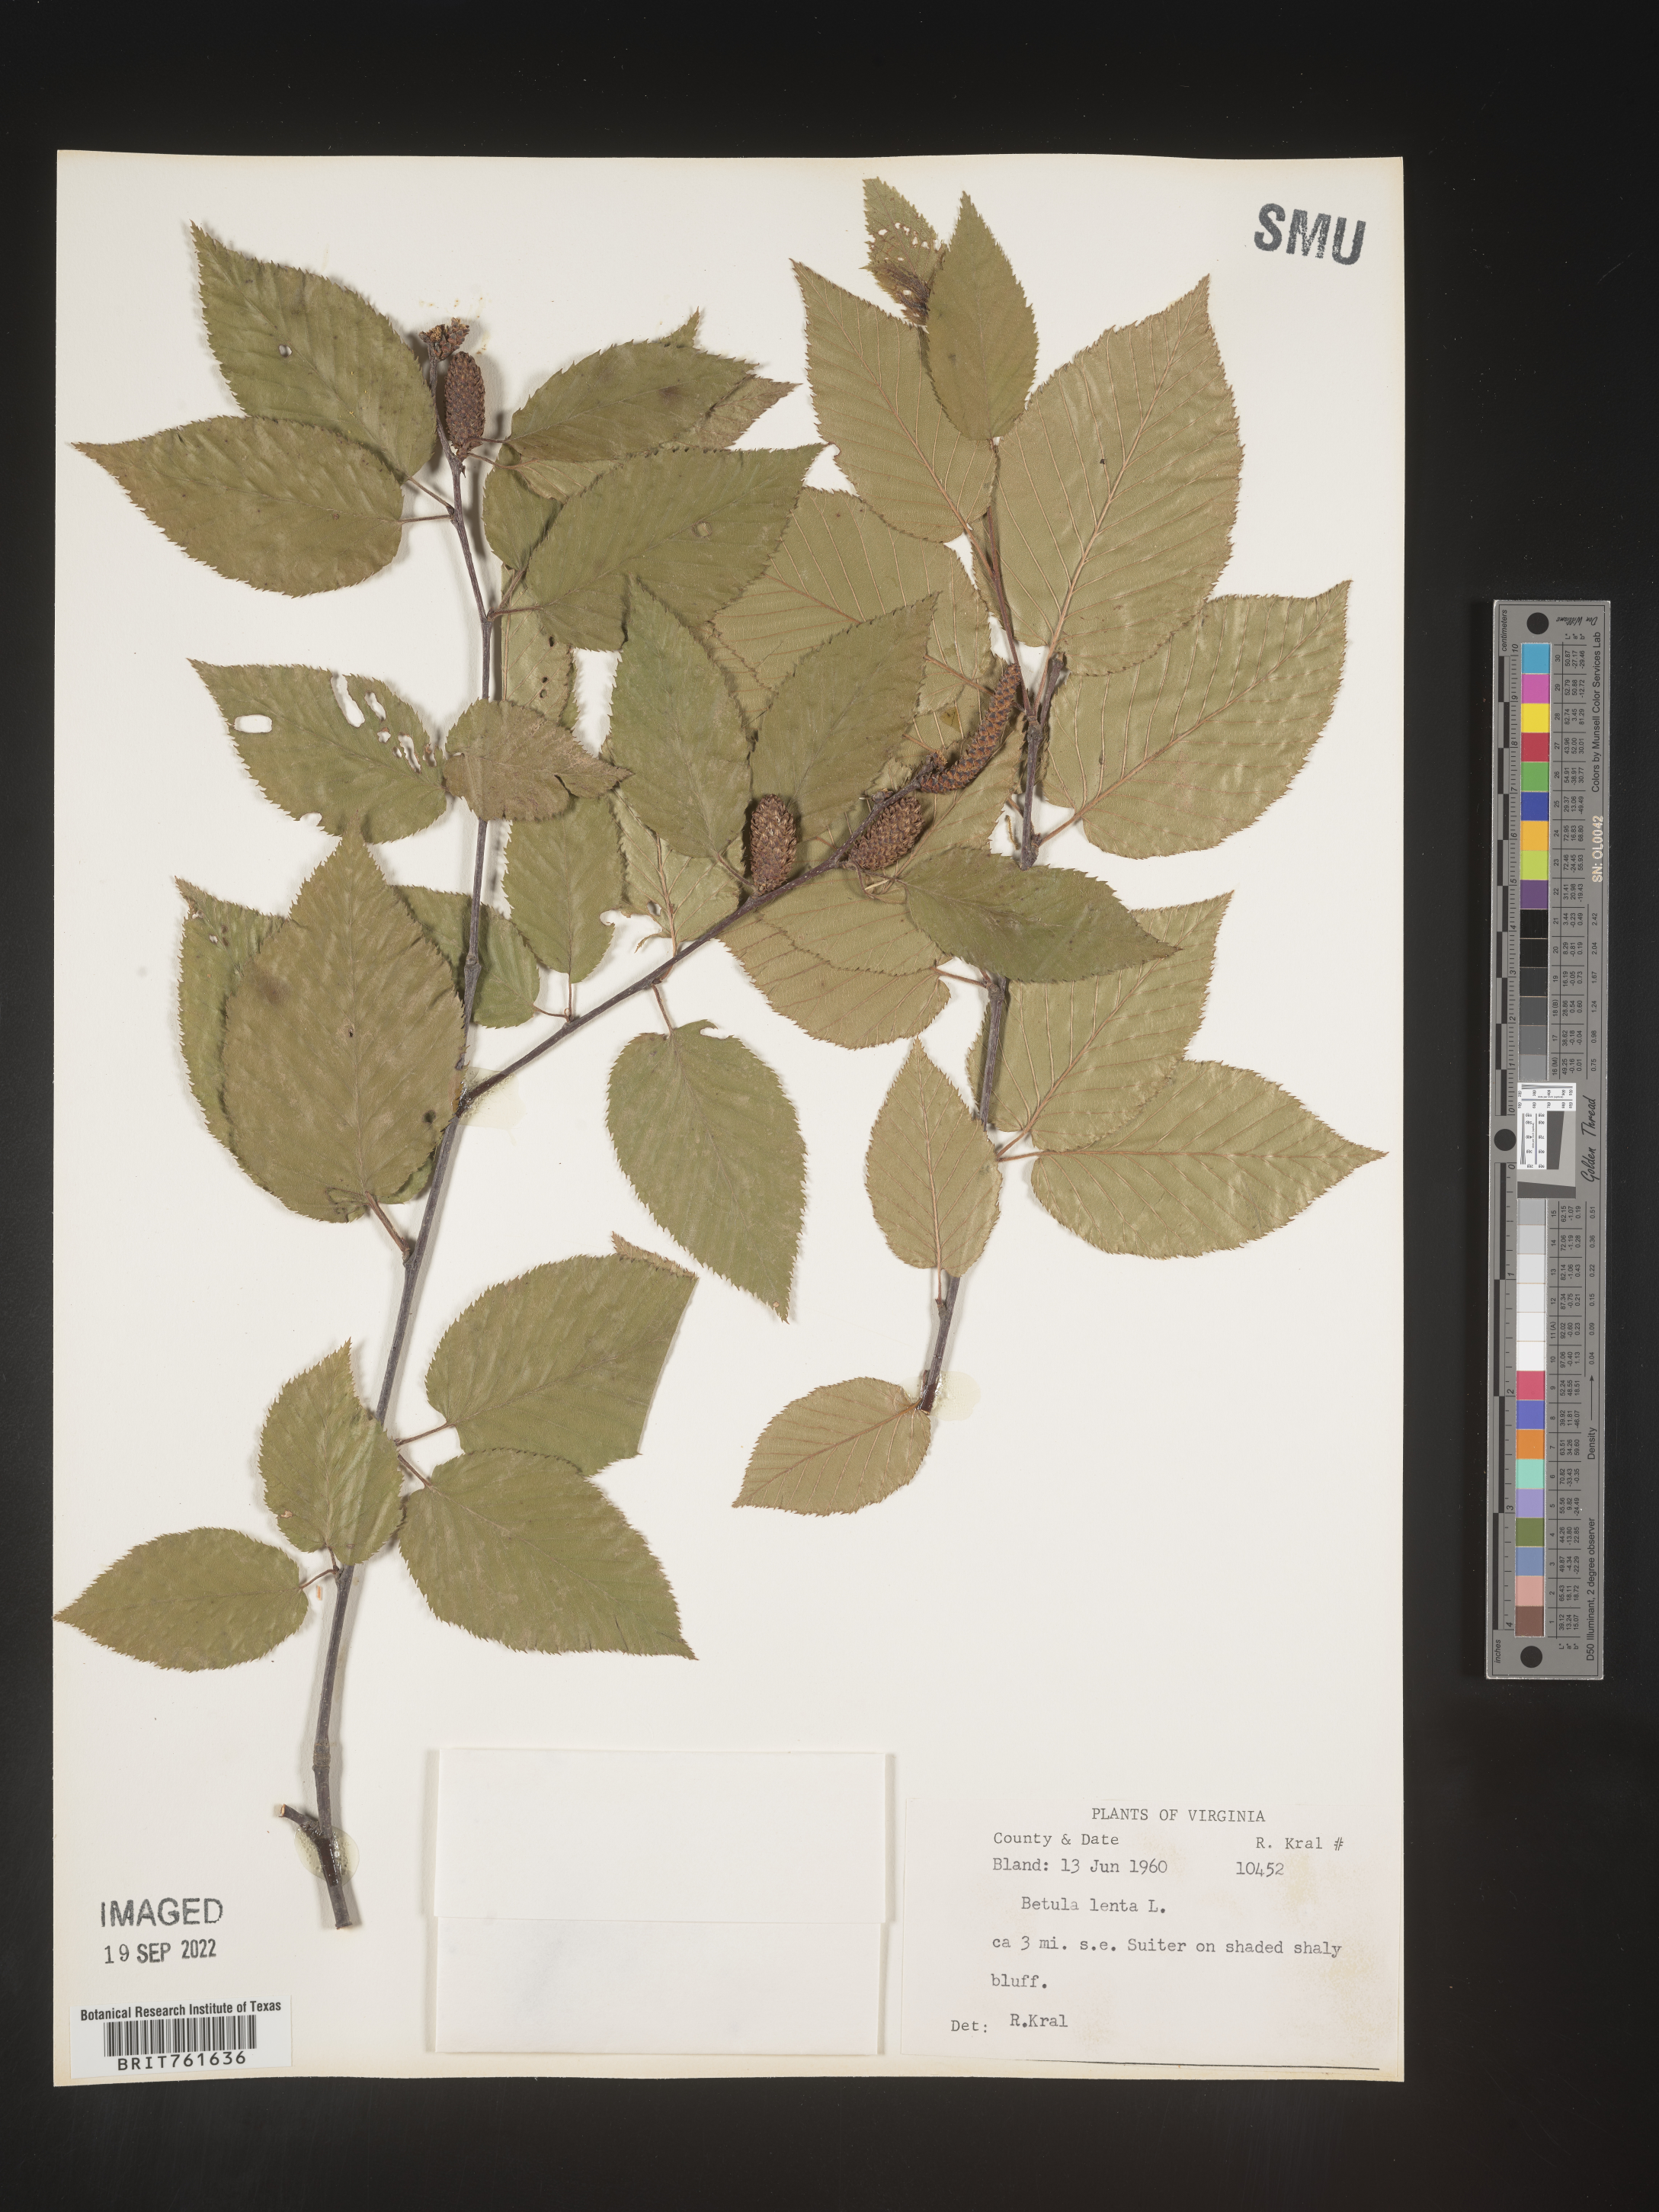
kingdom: Plantae
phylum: Tracheophyta
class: Magnoliopsida
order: Fagales
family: Betulaceae
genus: Betula
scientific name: Betula lenta
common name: Black birch
